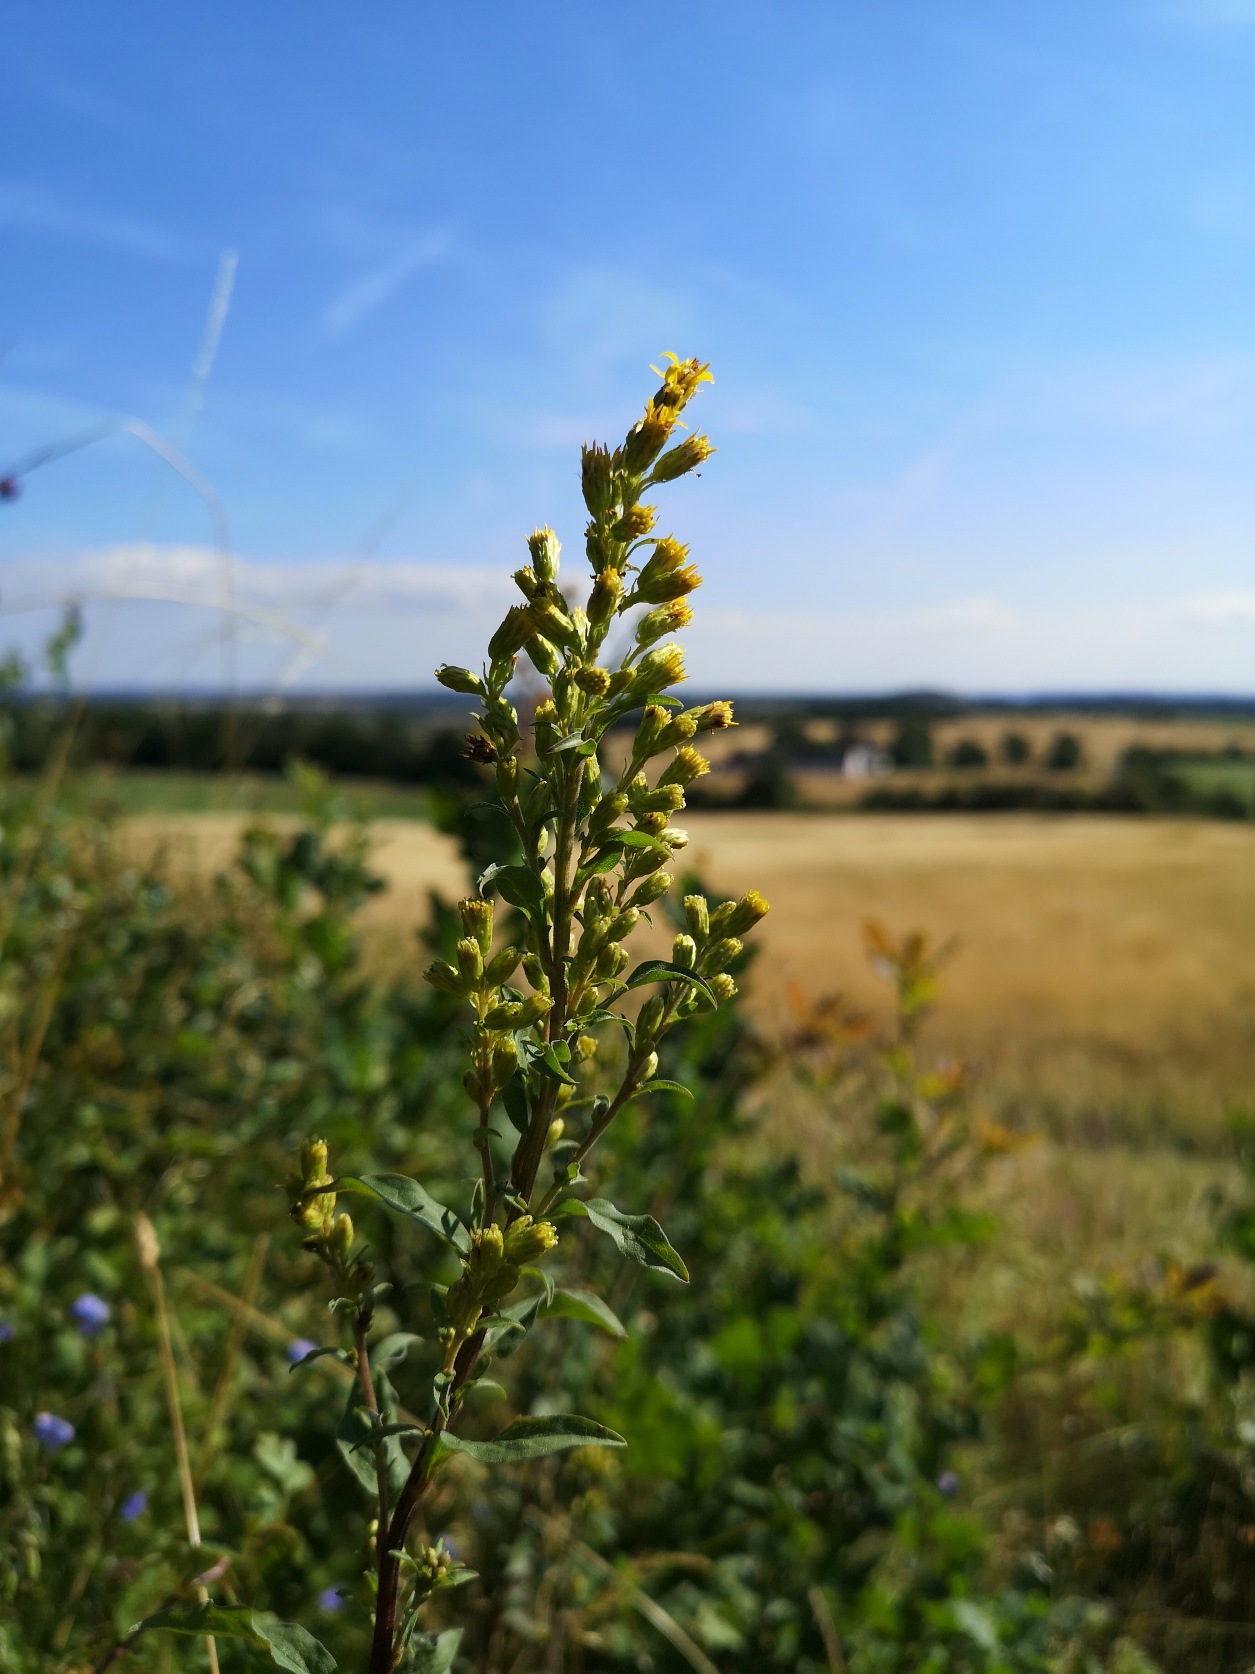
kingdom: Plantae
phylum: Tracheophyta
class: Magnoliopsida
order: Asterales
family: Asteraceae
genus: Solidago
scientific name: Solidago virgaurea
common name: Almindelig gyldenris
